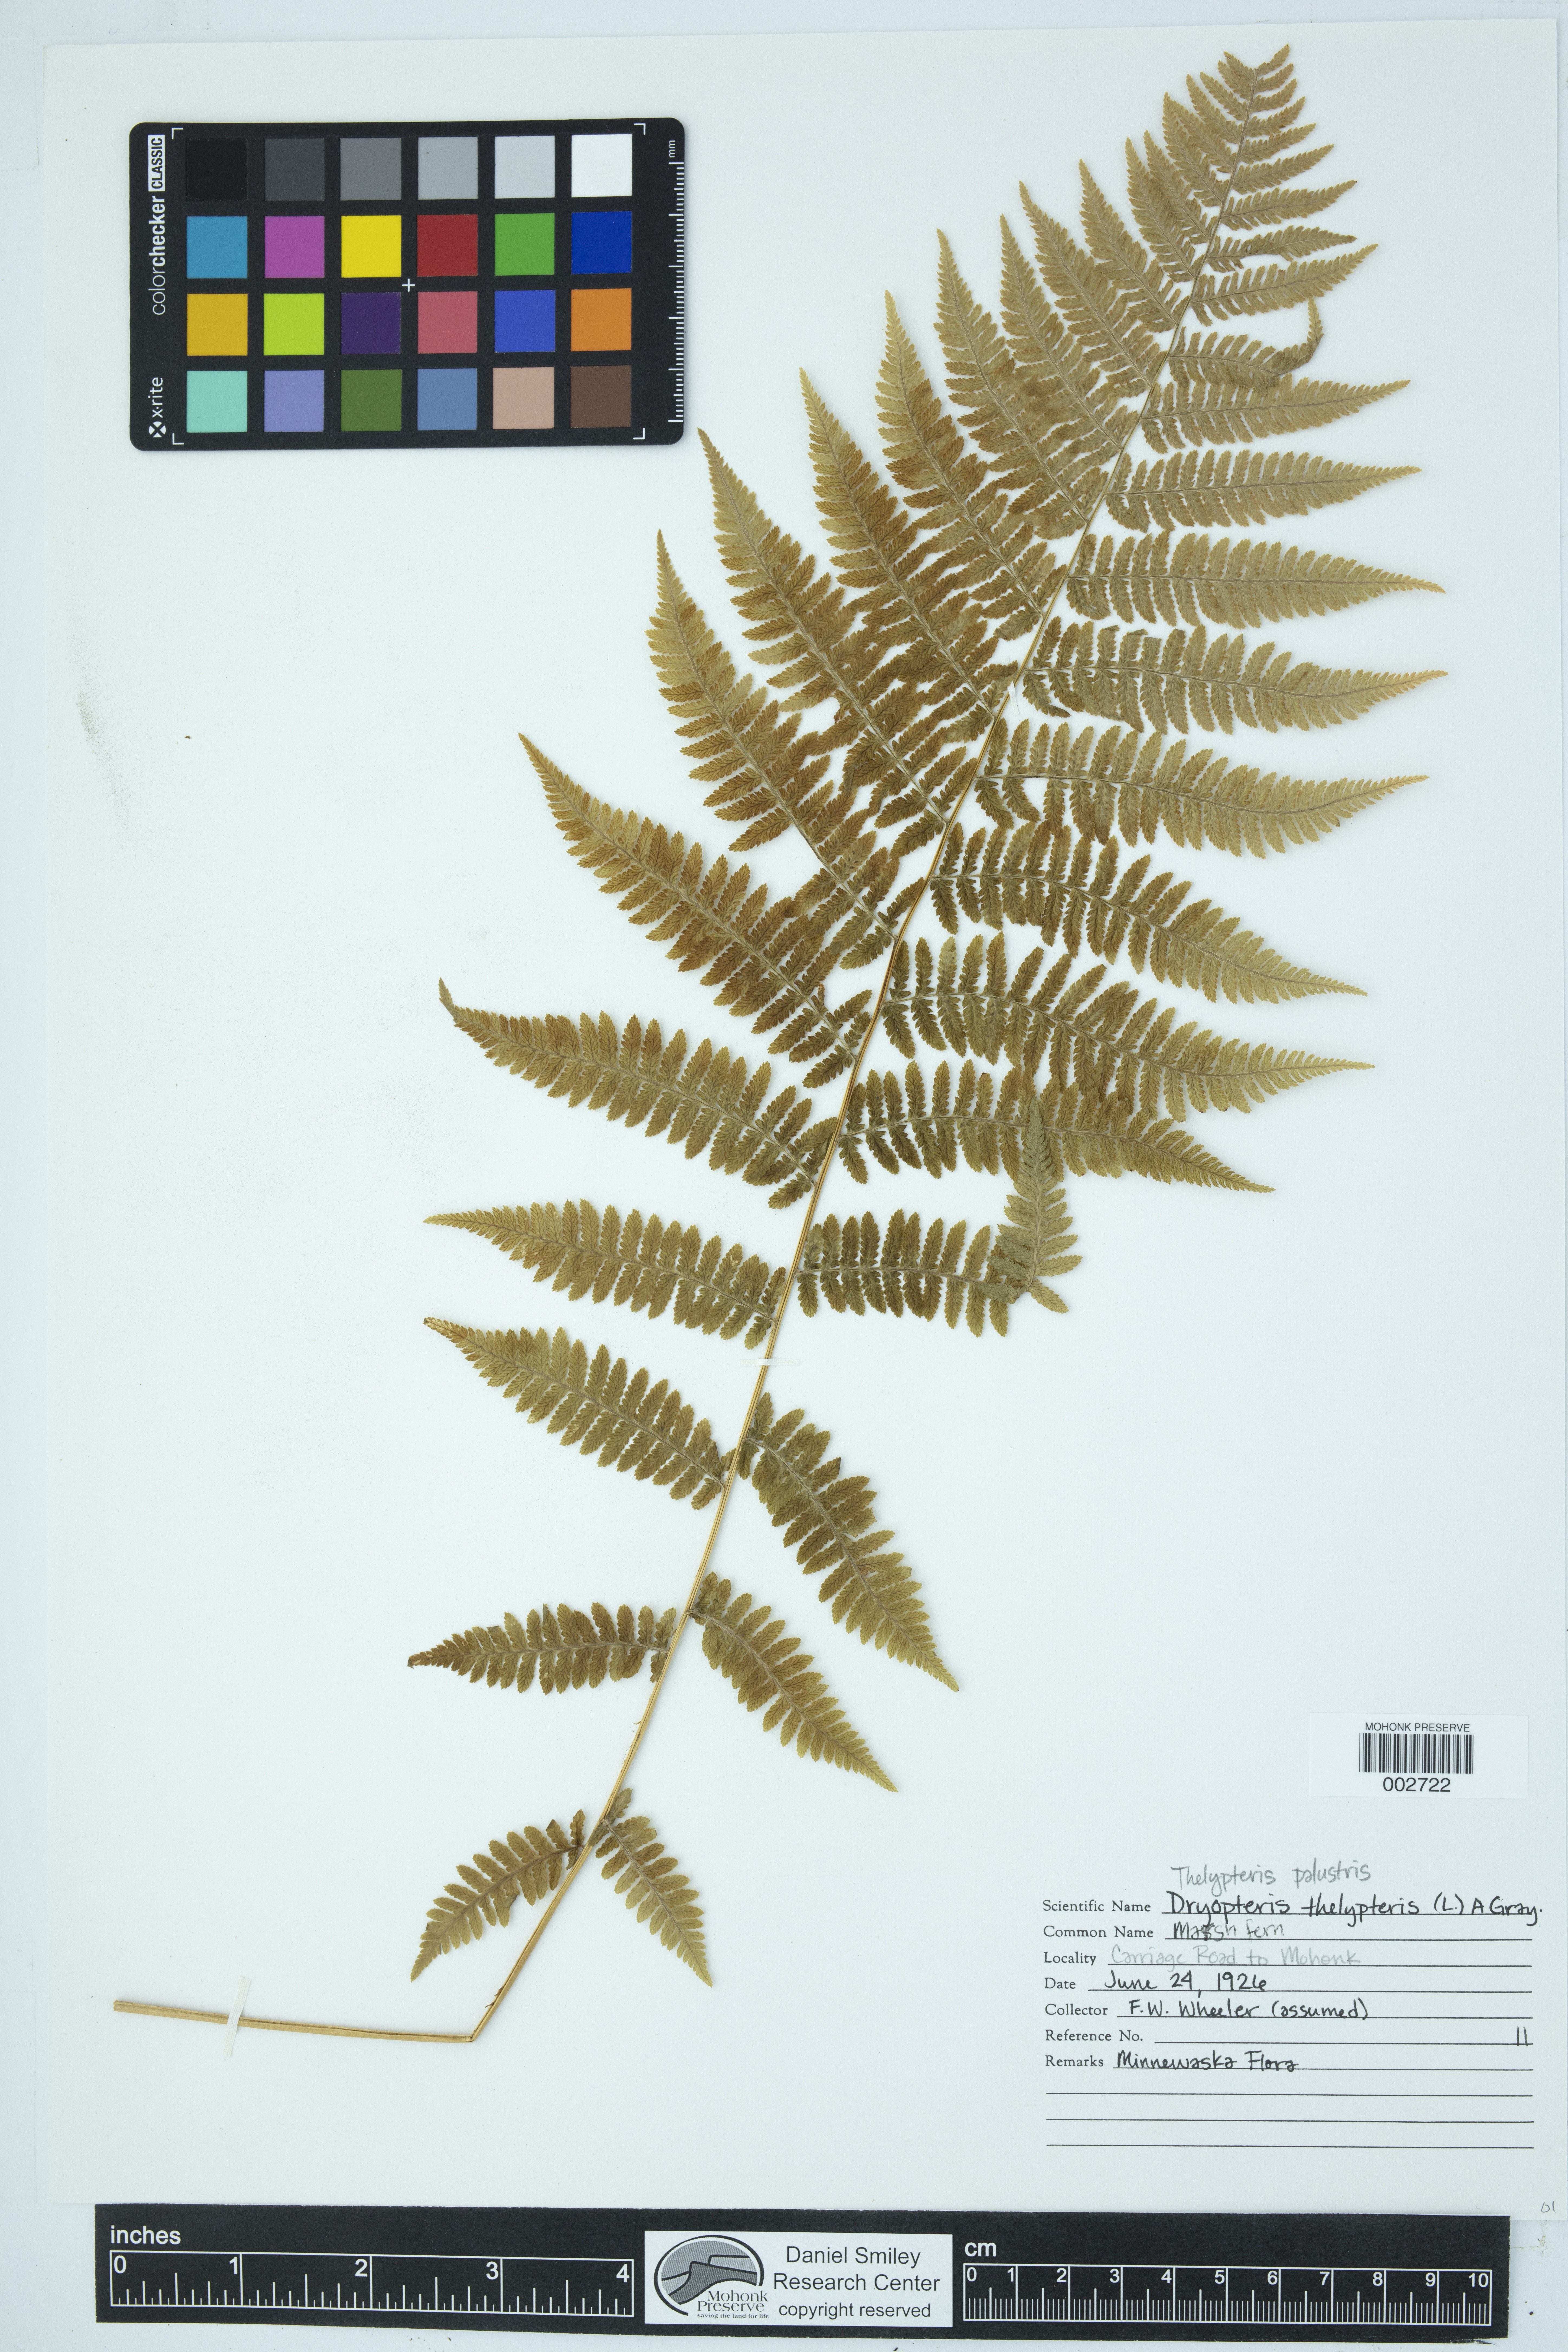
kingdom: Plantae
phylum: Tracheophyta
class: Polypodiopsida
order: Polypodiales
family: Thelypteridaceae
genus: Thelypteris
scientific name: Thelypteris confluens
